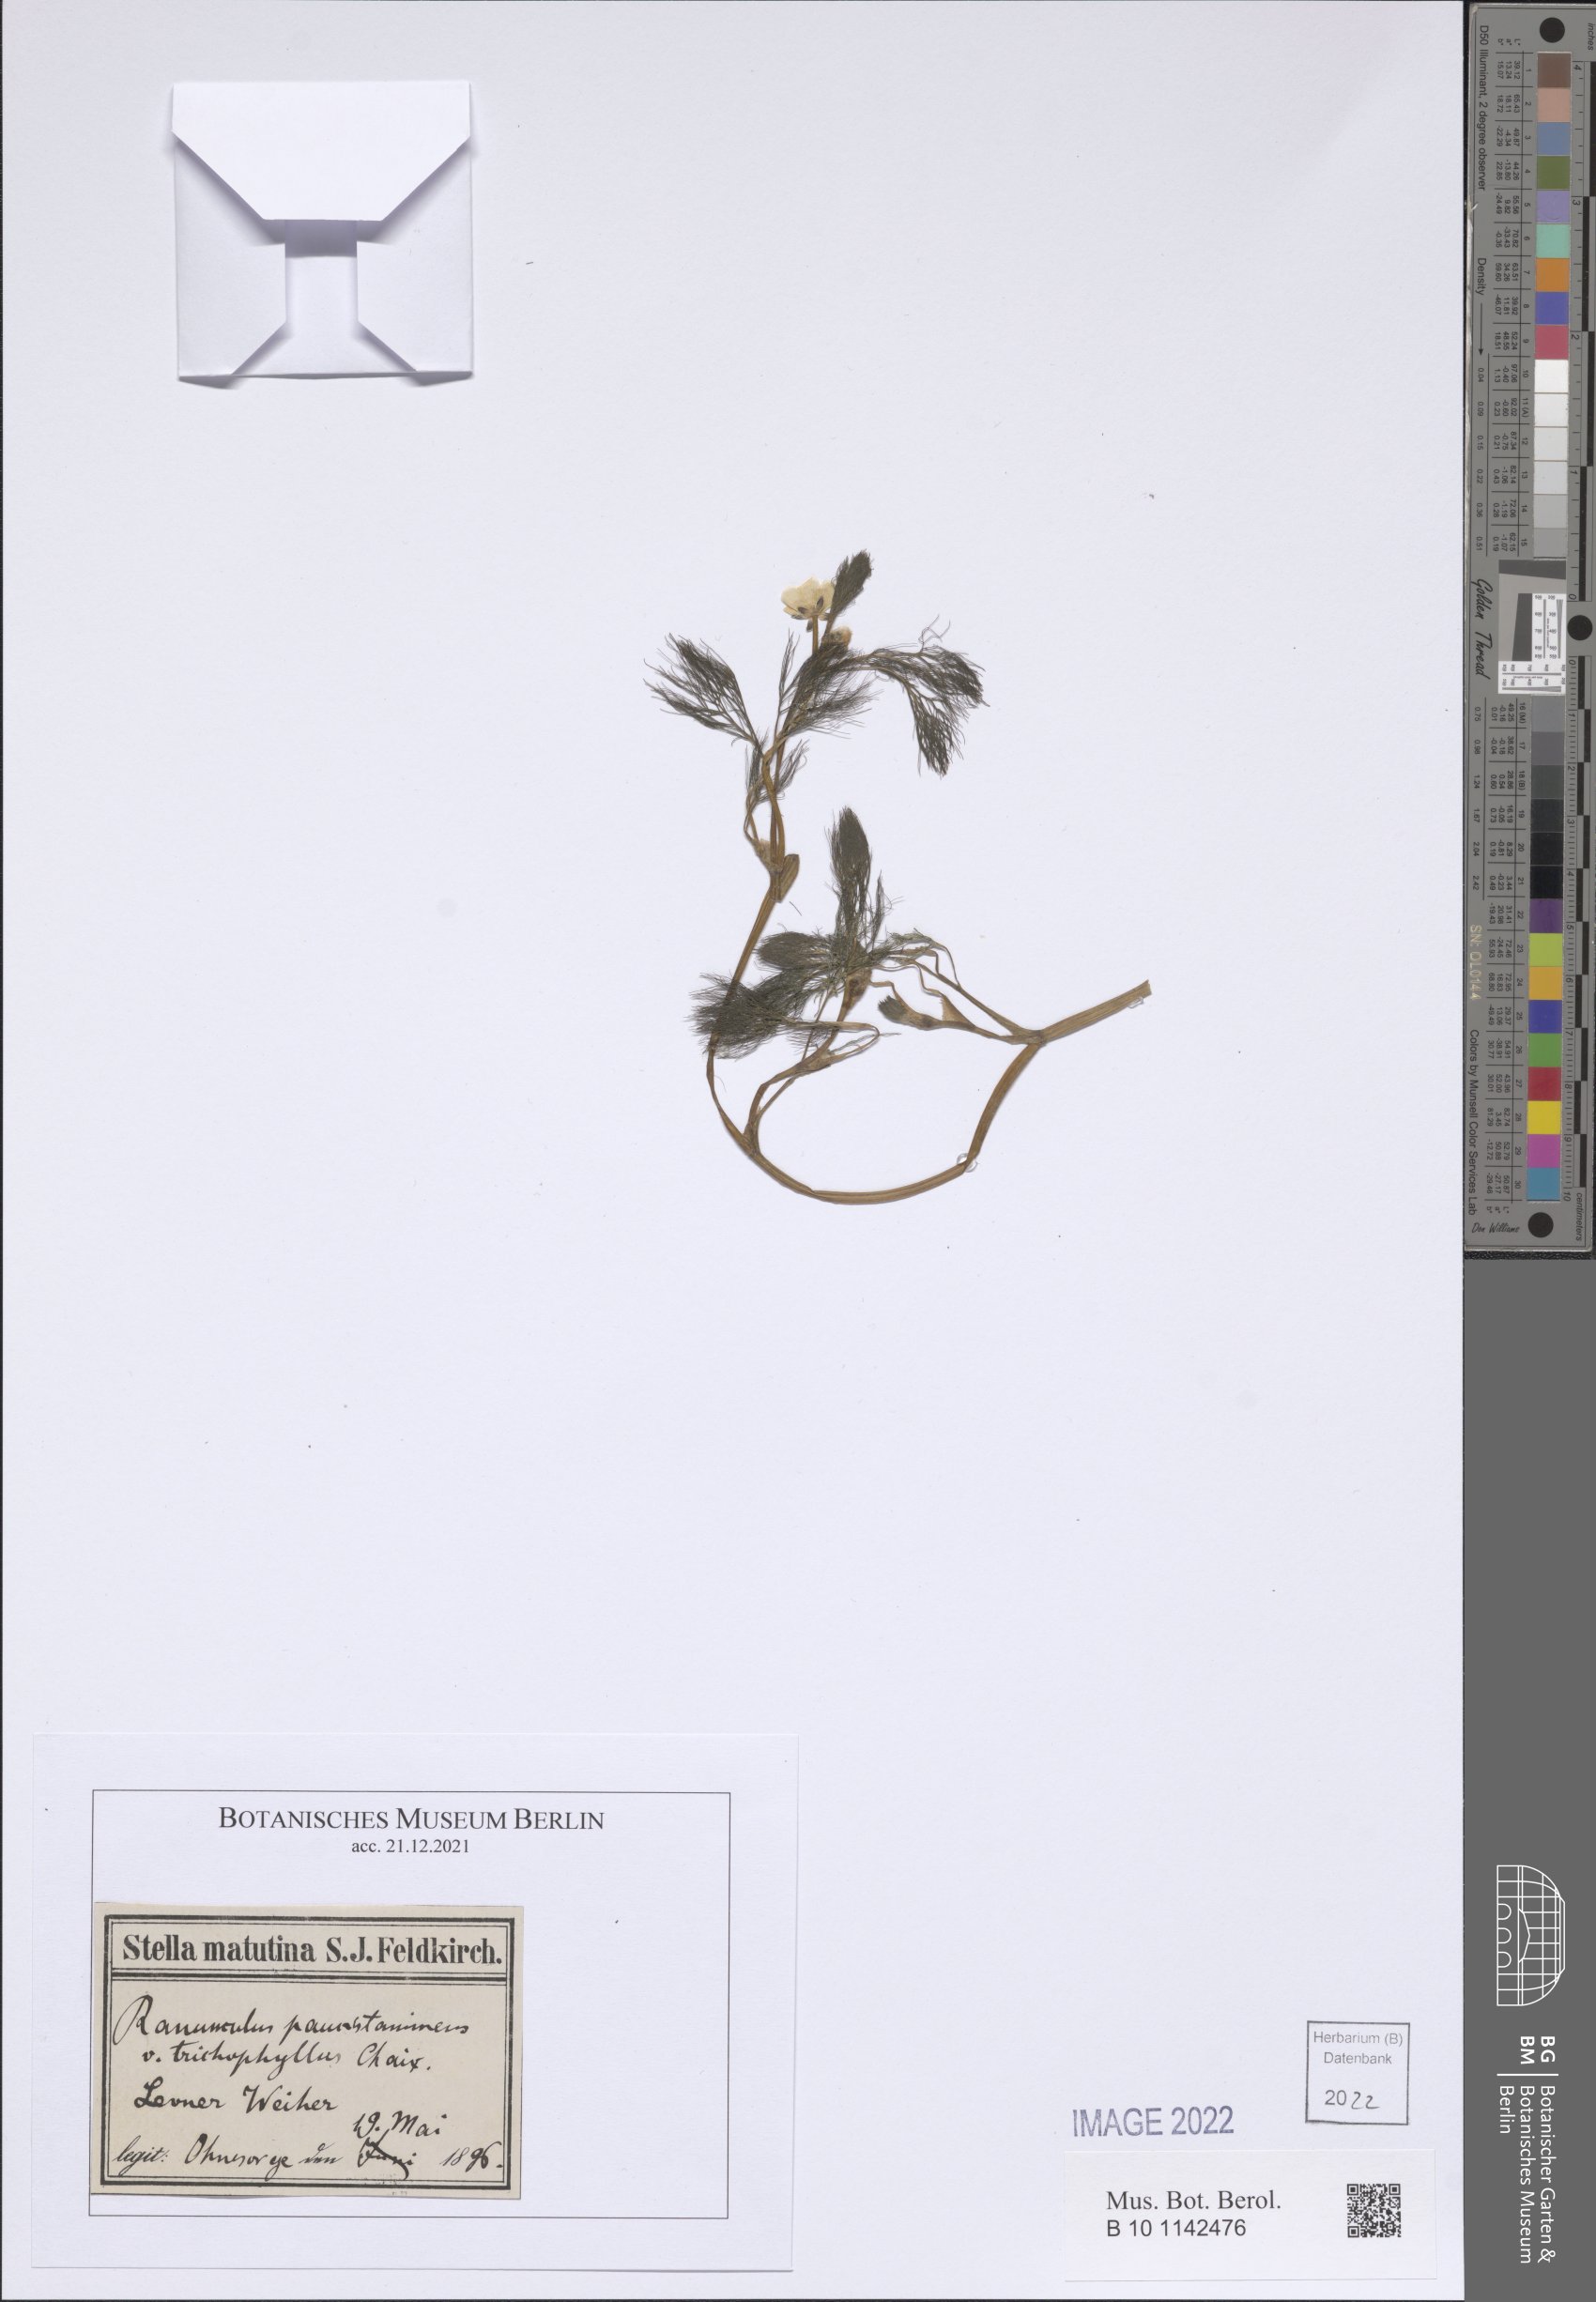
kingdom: Plantae
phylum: Tracheophyta
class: Magnoliopsida
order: Ranunculales
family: Ranunculaceae
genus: Ranunculus
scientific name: Ranunculus trichophyllus
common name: Thread-leaved water-crowfoot
